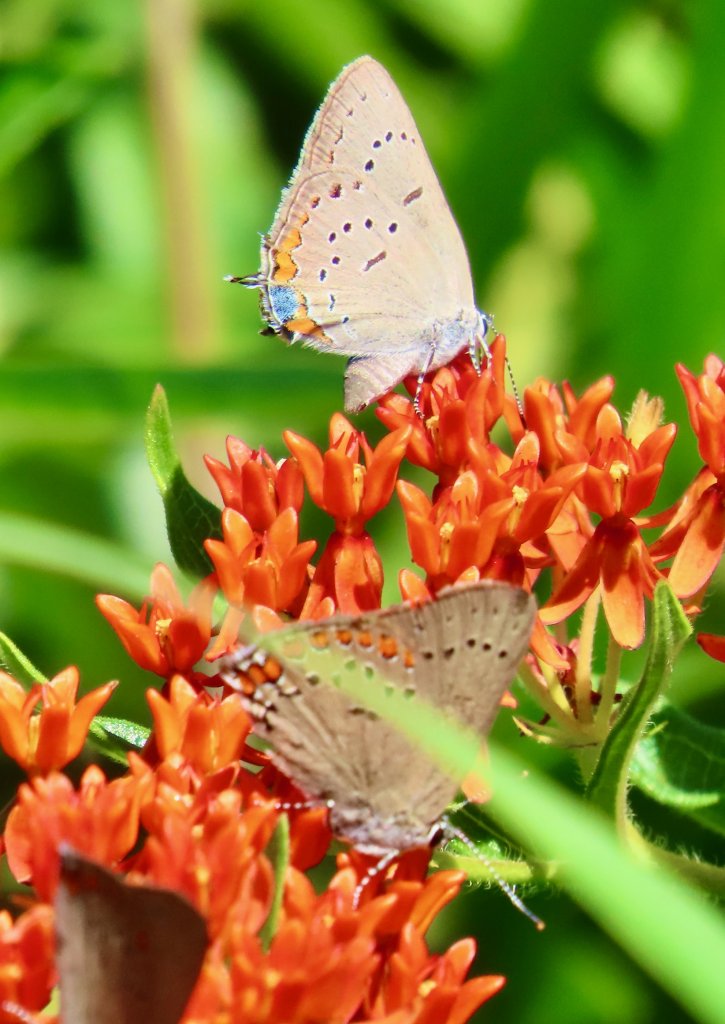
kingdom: Animalia
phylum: Arthropoda
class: Insecta
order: Lepidoptera
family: Lycaenidae
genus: Strymon
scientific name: Strymon acadica
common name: Acadian Hairstreak
